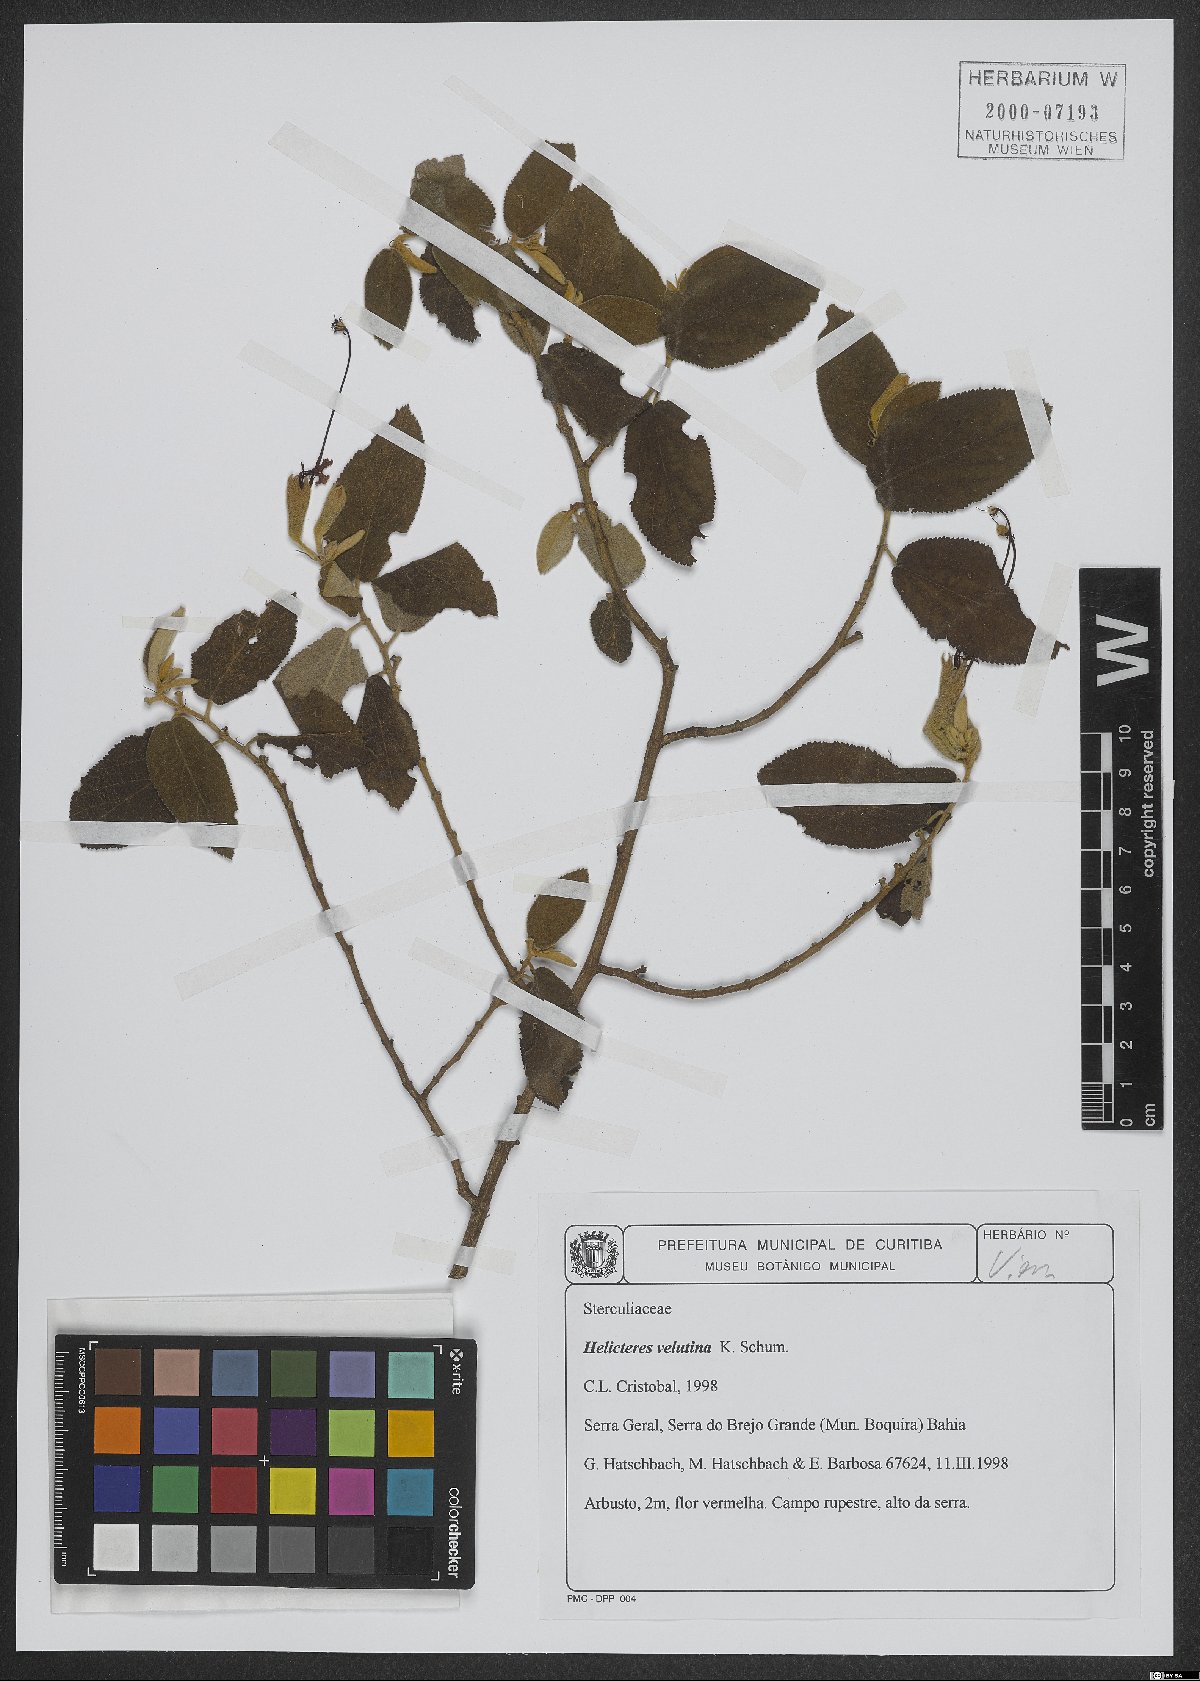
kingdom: Plantae
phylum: Tracheophyta
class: Magnoliopsida
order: Malvales
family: Malvaceae
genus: Helicteres
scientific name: Helicteres velutina
